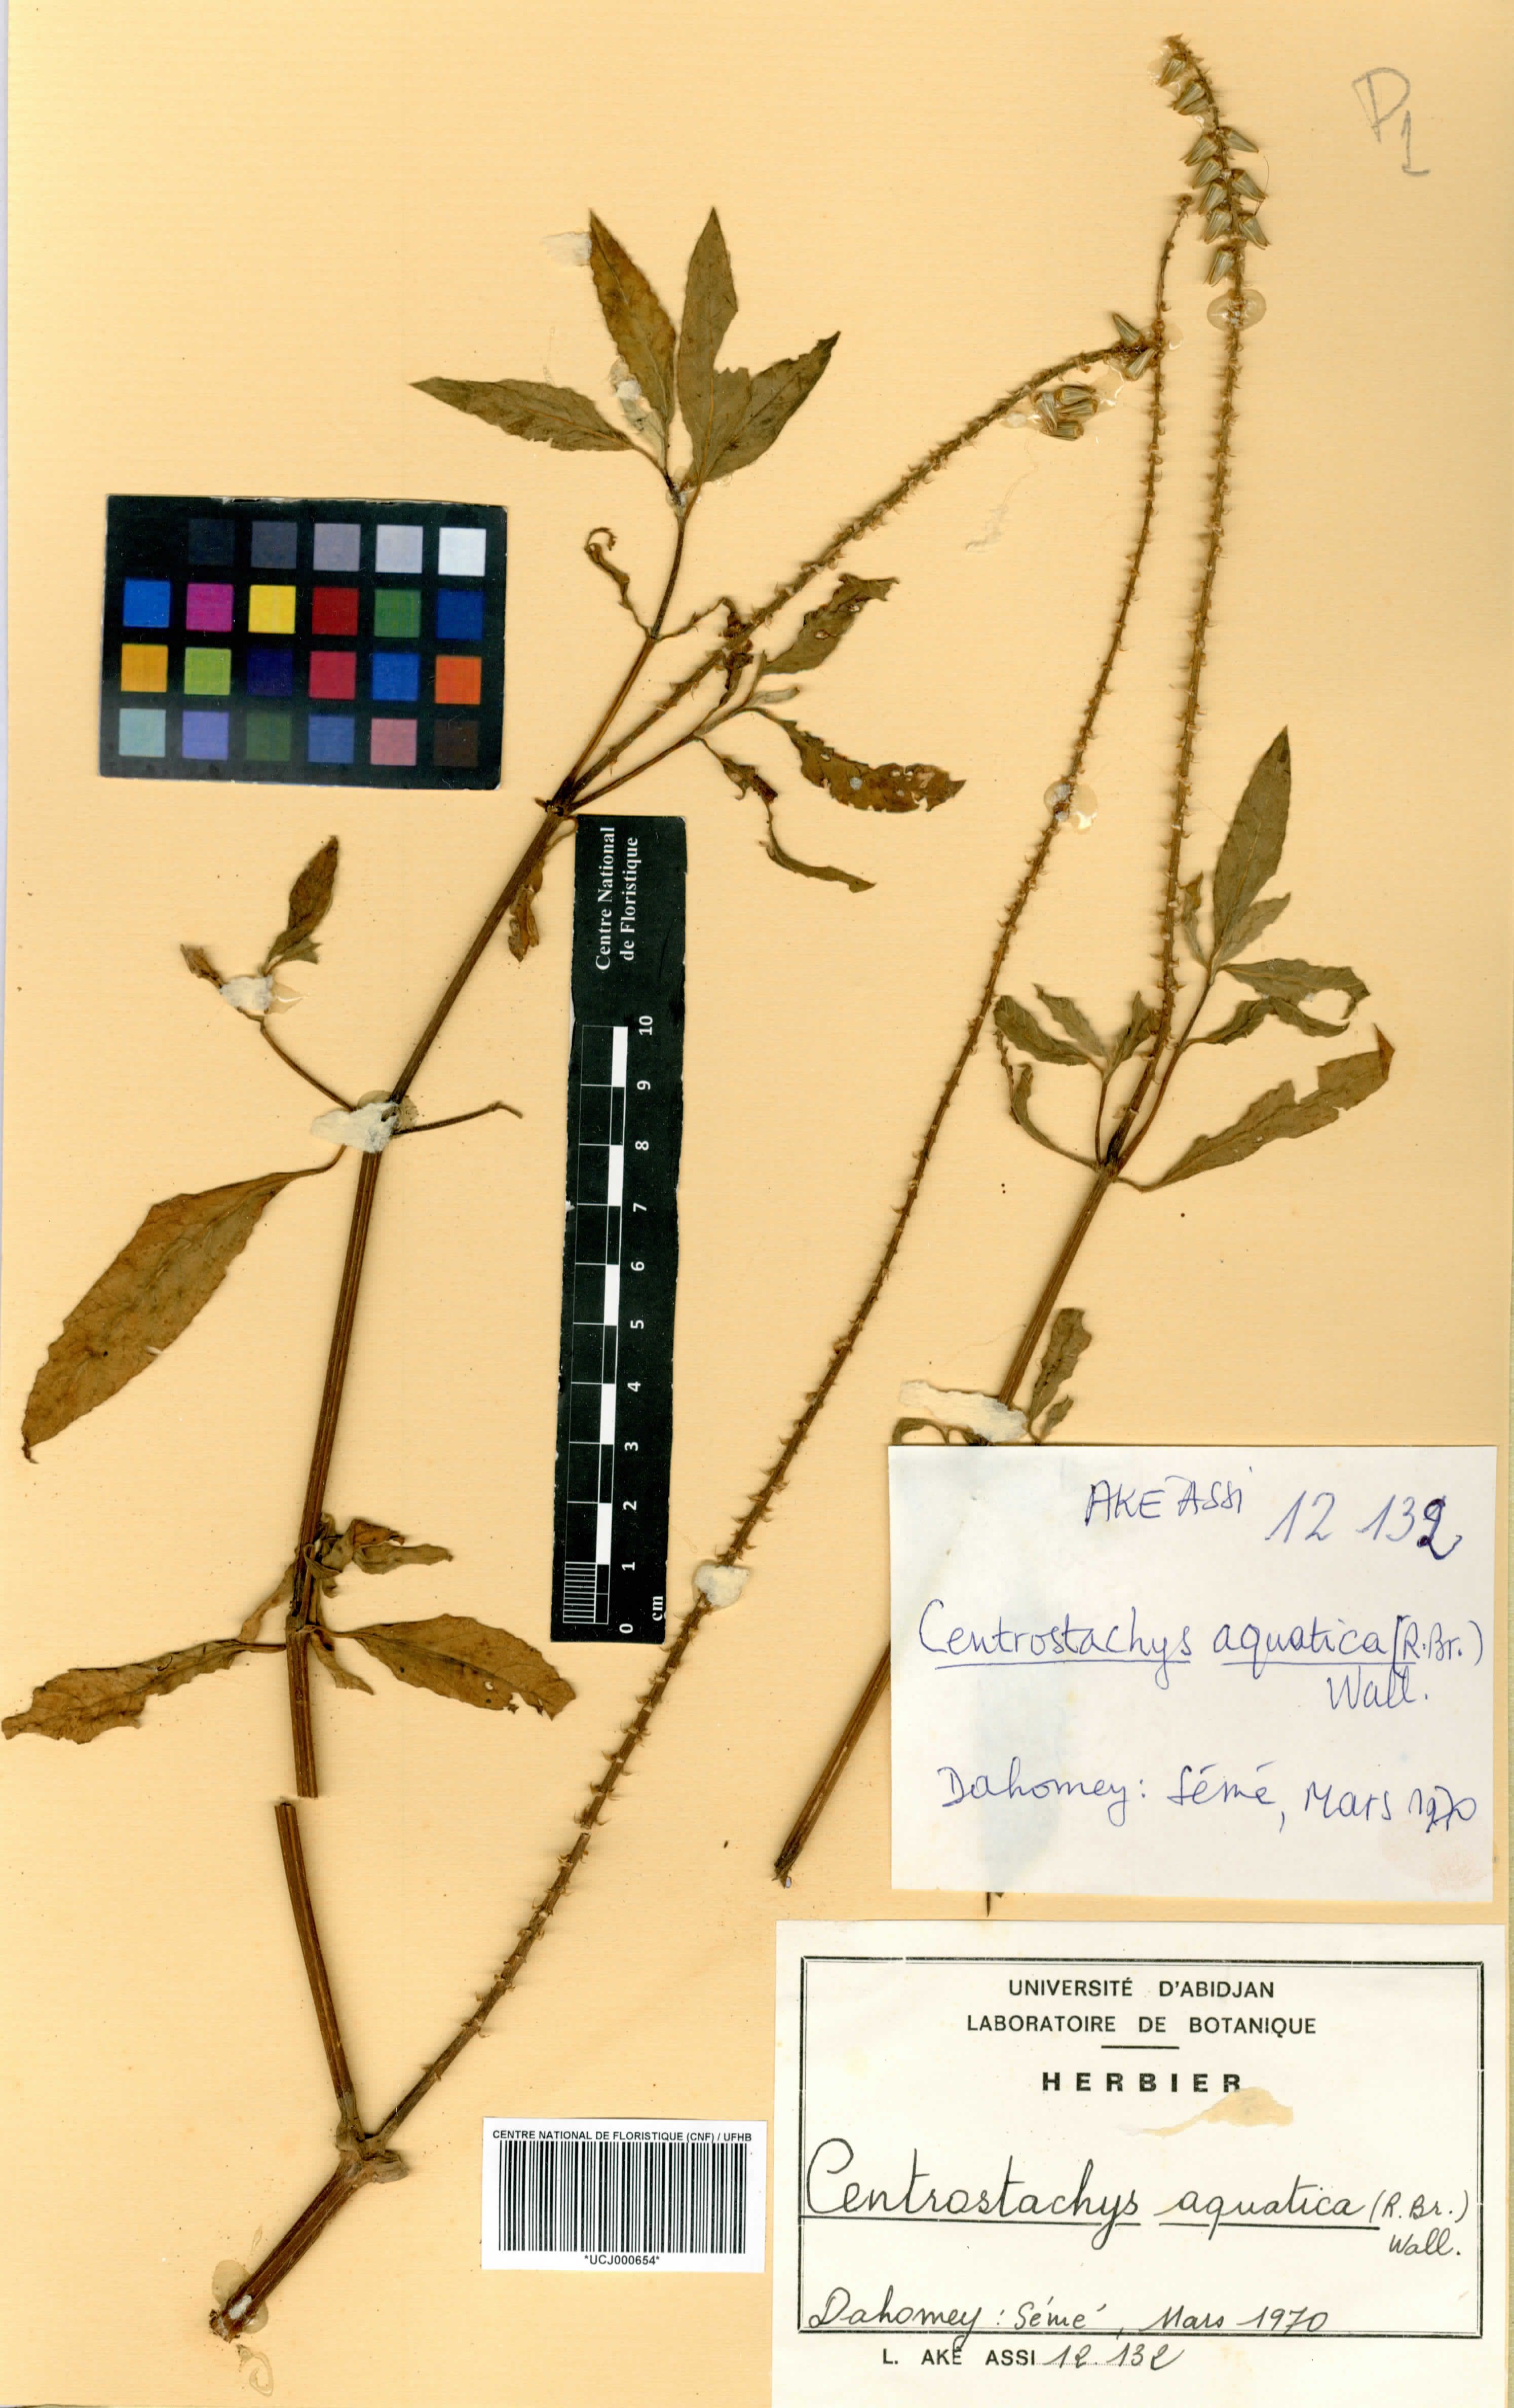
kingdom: Plantae
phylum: Tracheophyta
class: Magnoliopsida
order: Caryophyllales
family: Amaranthaceae
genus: Centrostachys
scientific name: Centrostachys aquatica
